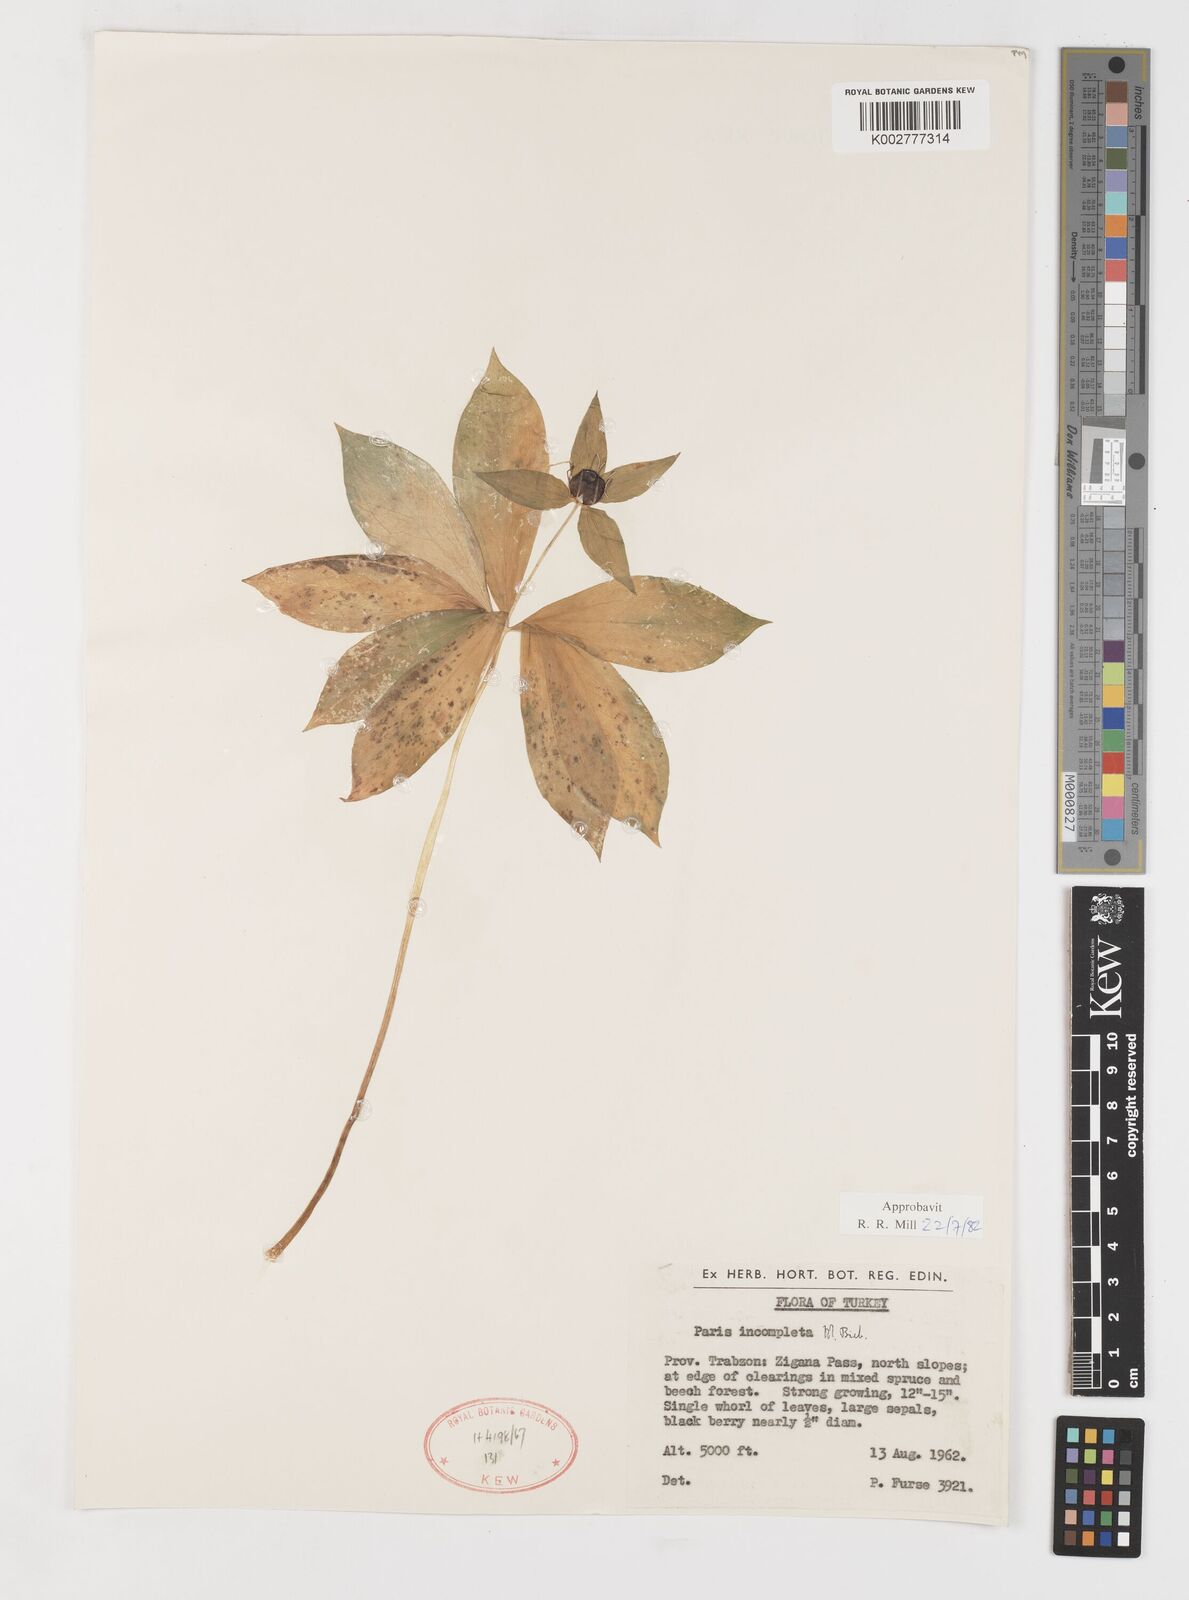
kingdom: Plantae
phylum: Tracheophyta
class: Liliopsida
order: Liliales
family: Melanthiaceae
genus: Paris
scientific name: Paris incompleta
